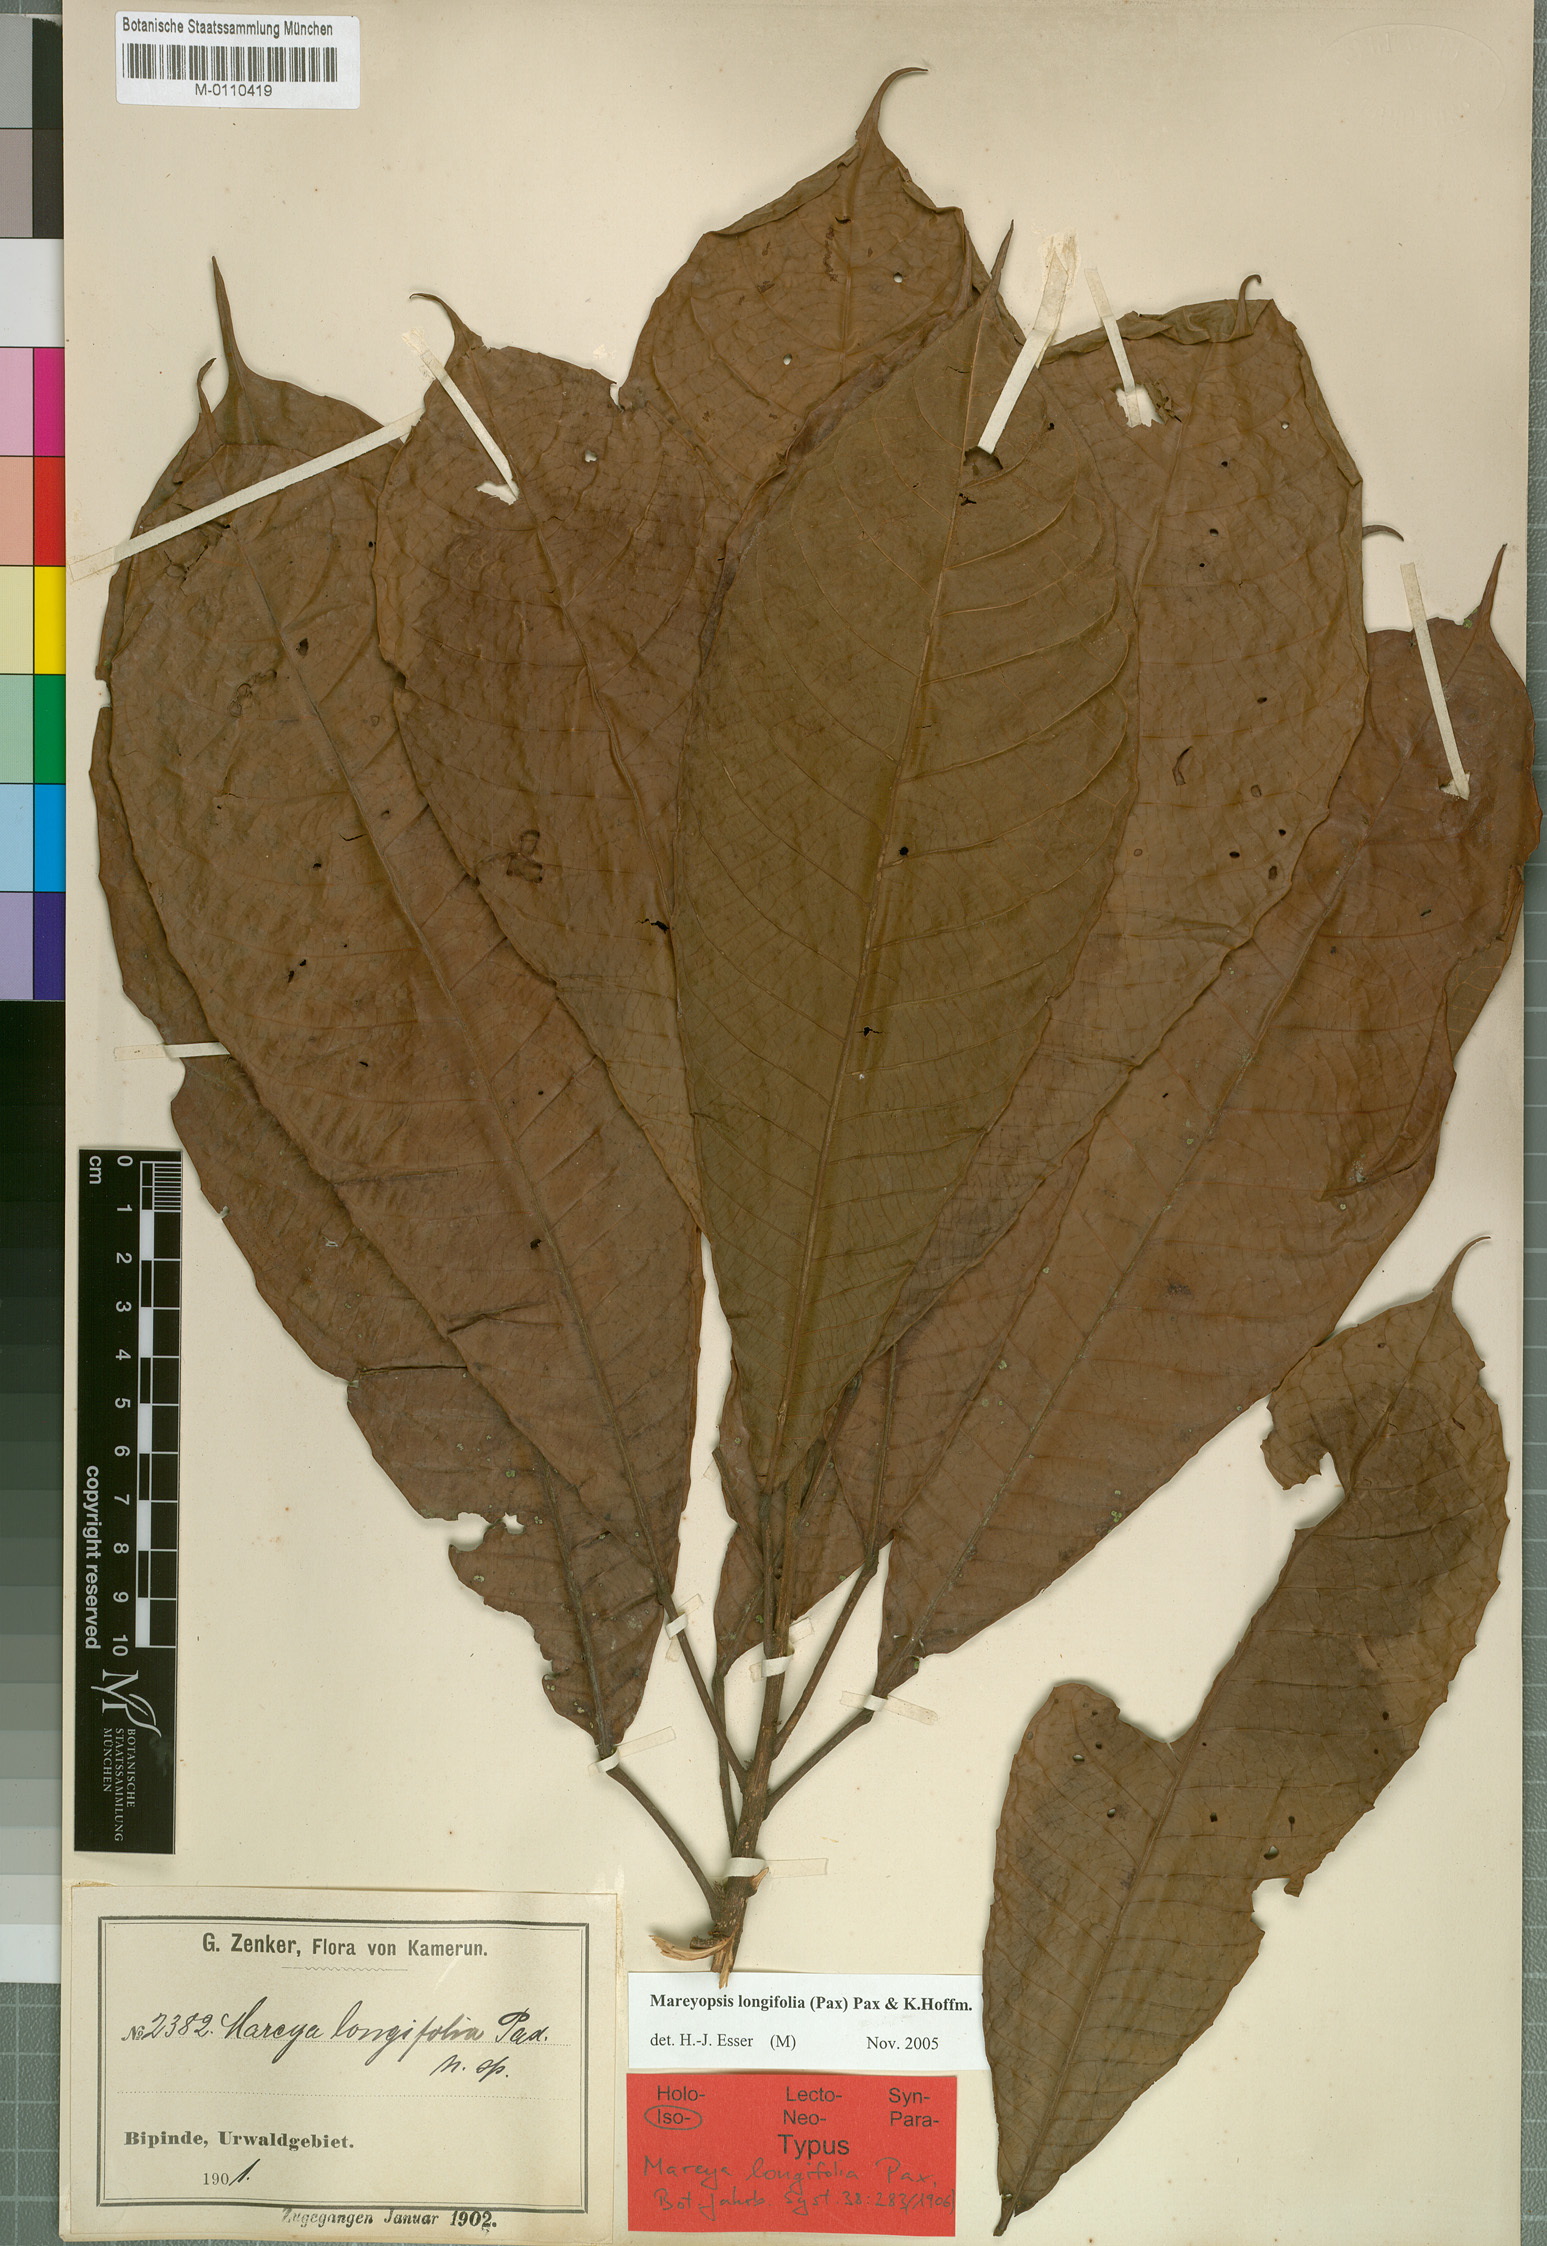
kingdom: Plantae
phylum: Tracheophyta
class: Magnoliopsida
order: Malpighiales
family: Euphorbiaceae
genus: Mareyopsis
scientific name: Mareyopsis longifolia
